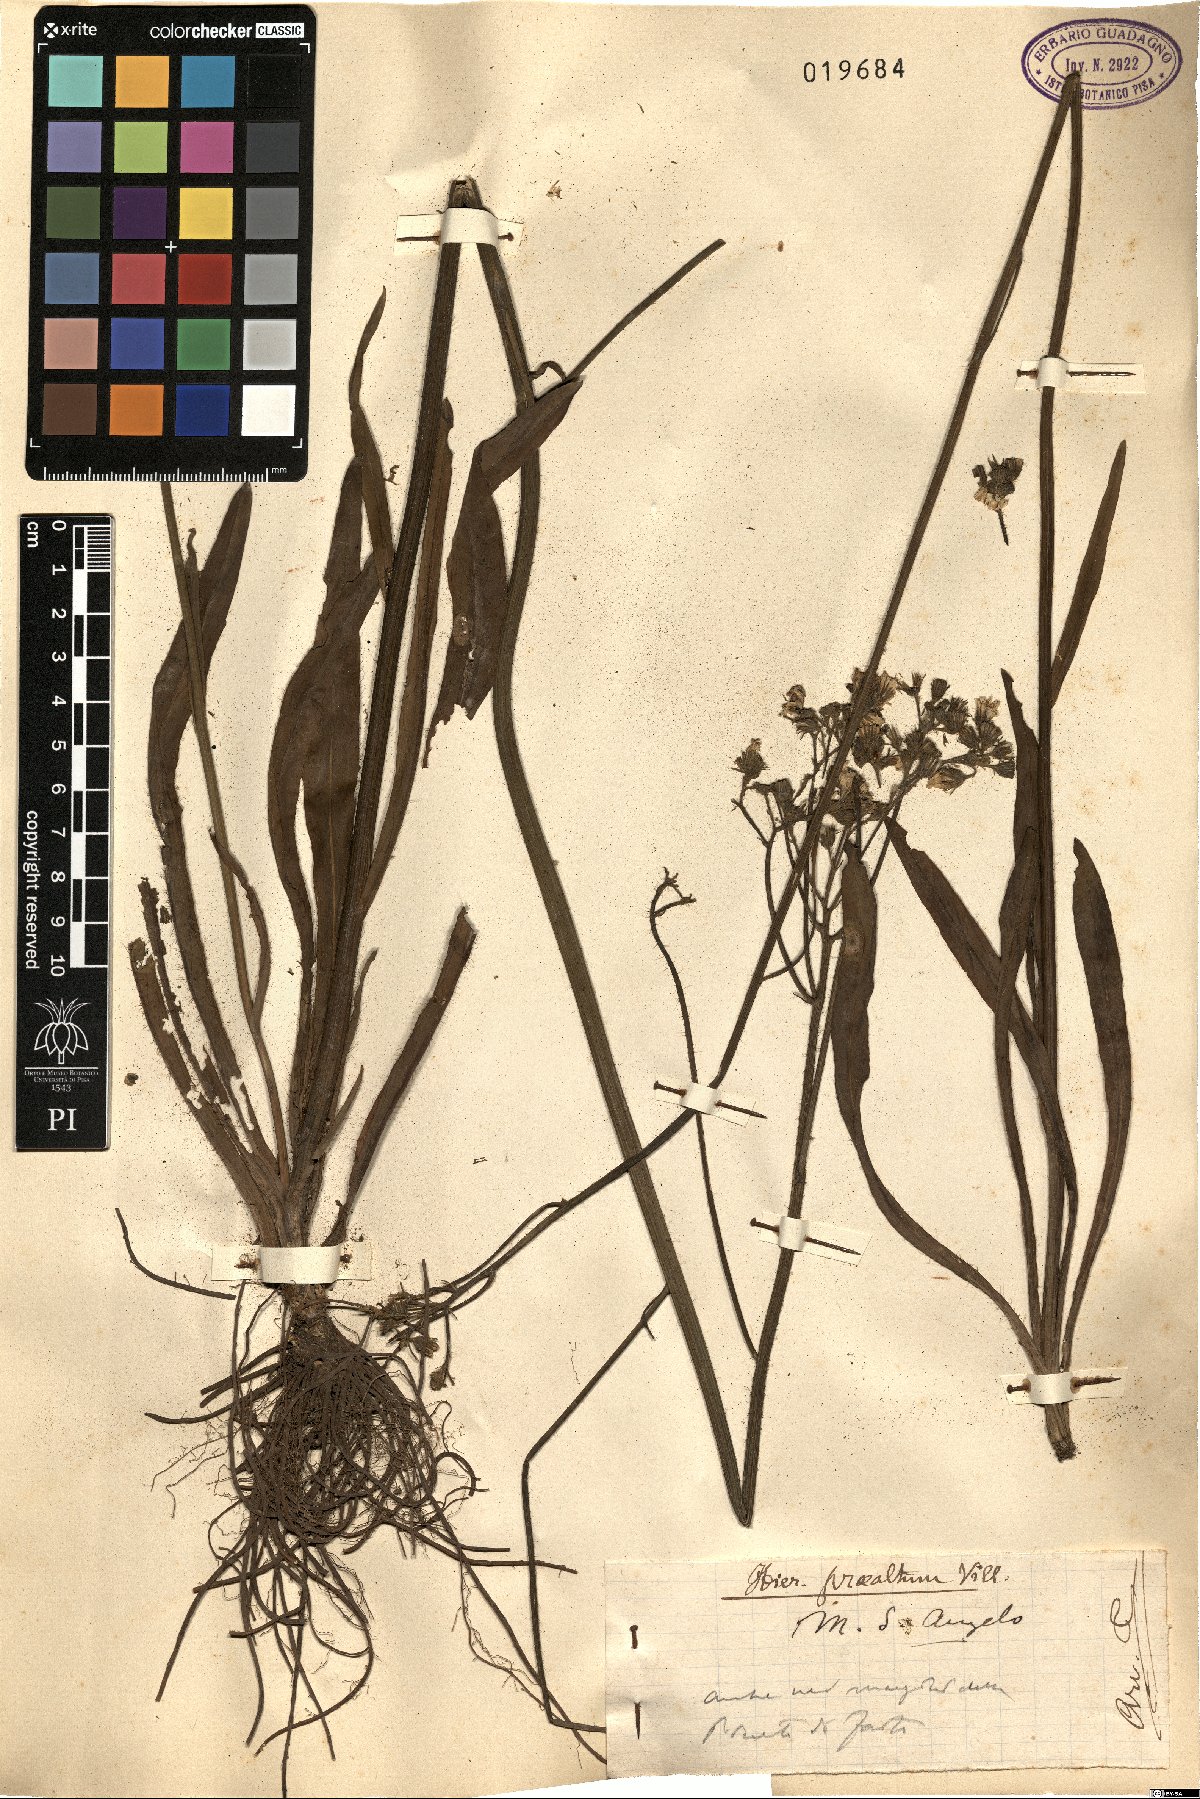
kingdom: Plantae
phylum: Tracheophyta
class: Magnoliopsida
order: Asterales
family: Asteraceae
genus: Pilosella
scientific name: Pilosella piloselloides
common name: Glaucous king-devil
